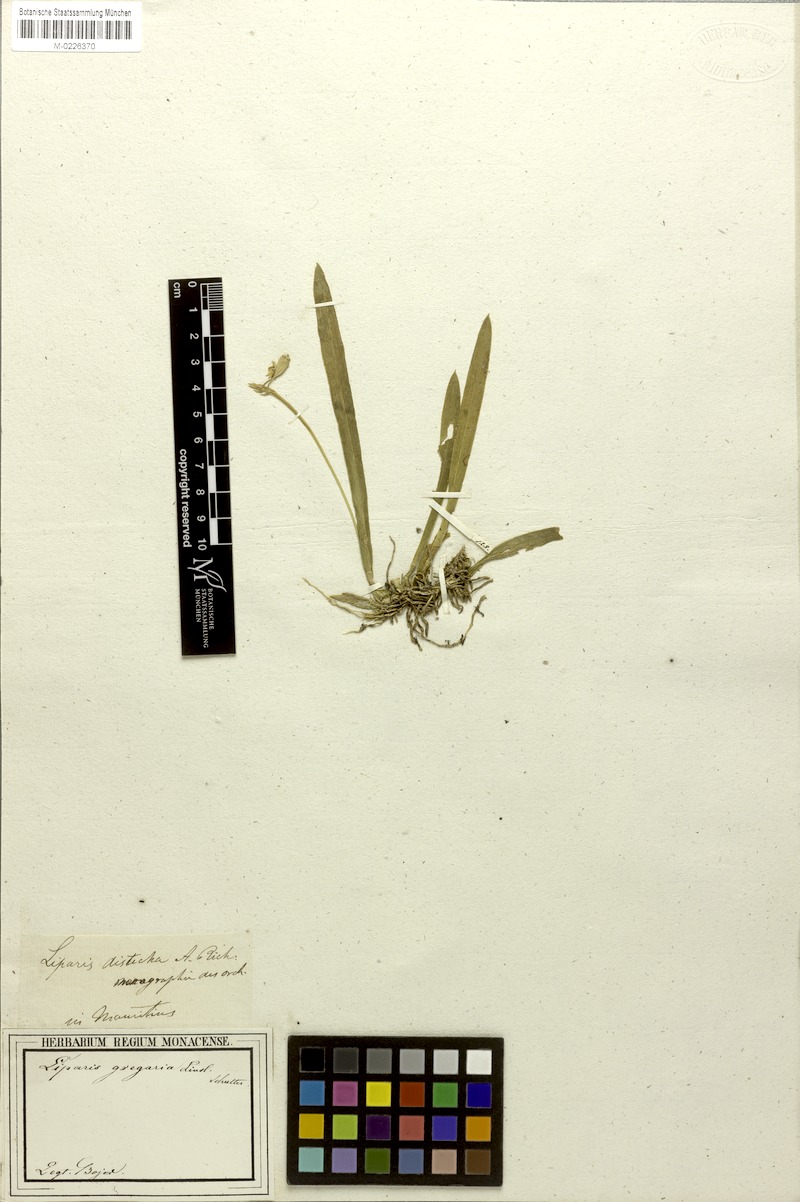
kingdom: Plantae
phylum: Tracheophyta
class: Liliopsida
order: Asparagales
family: Orchidaceae
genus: Stichorkis
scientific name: Stichorkis distichis
